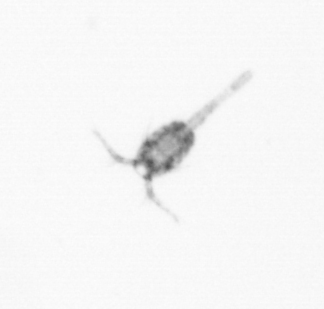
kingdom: Animalia
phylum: Arthropoda
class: Copepoda
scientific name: Copepoda
